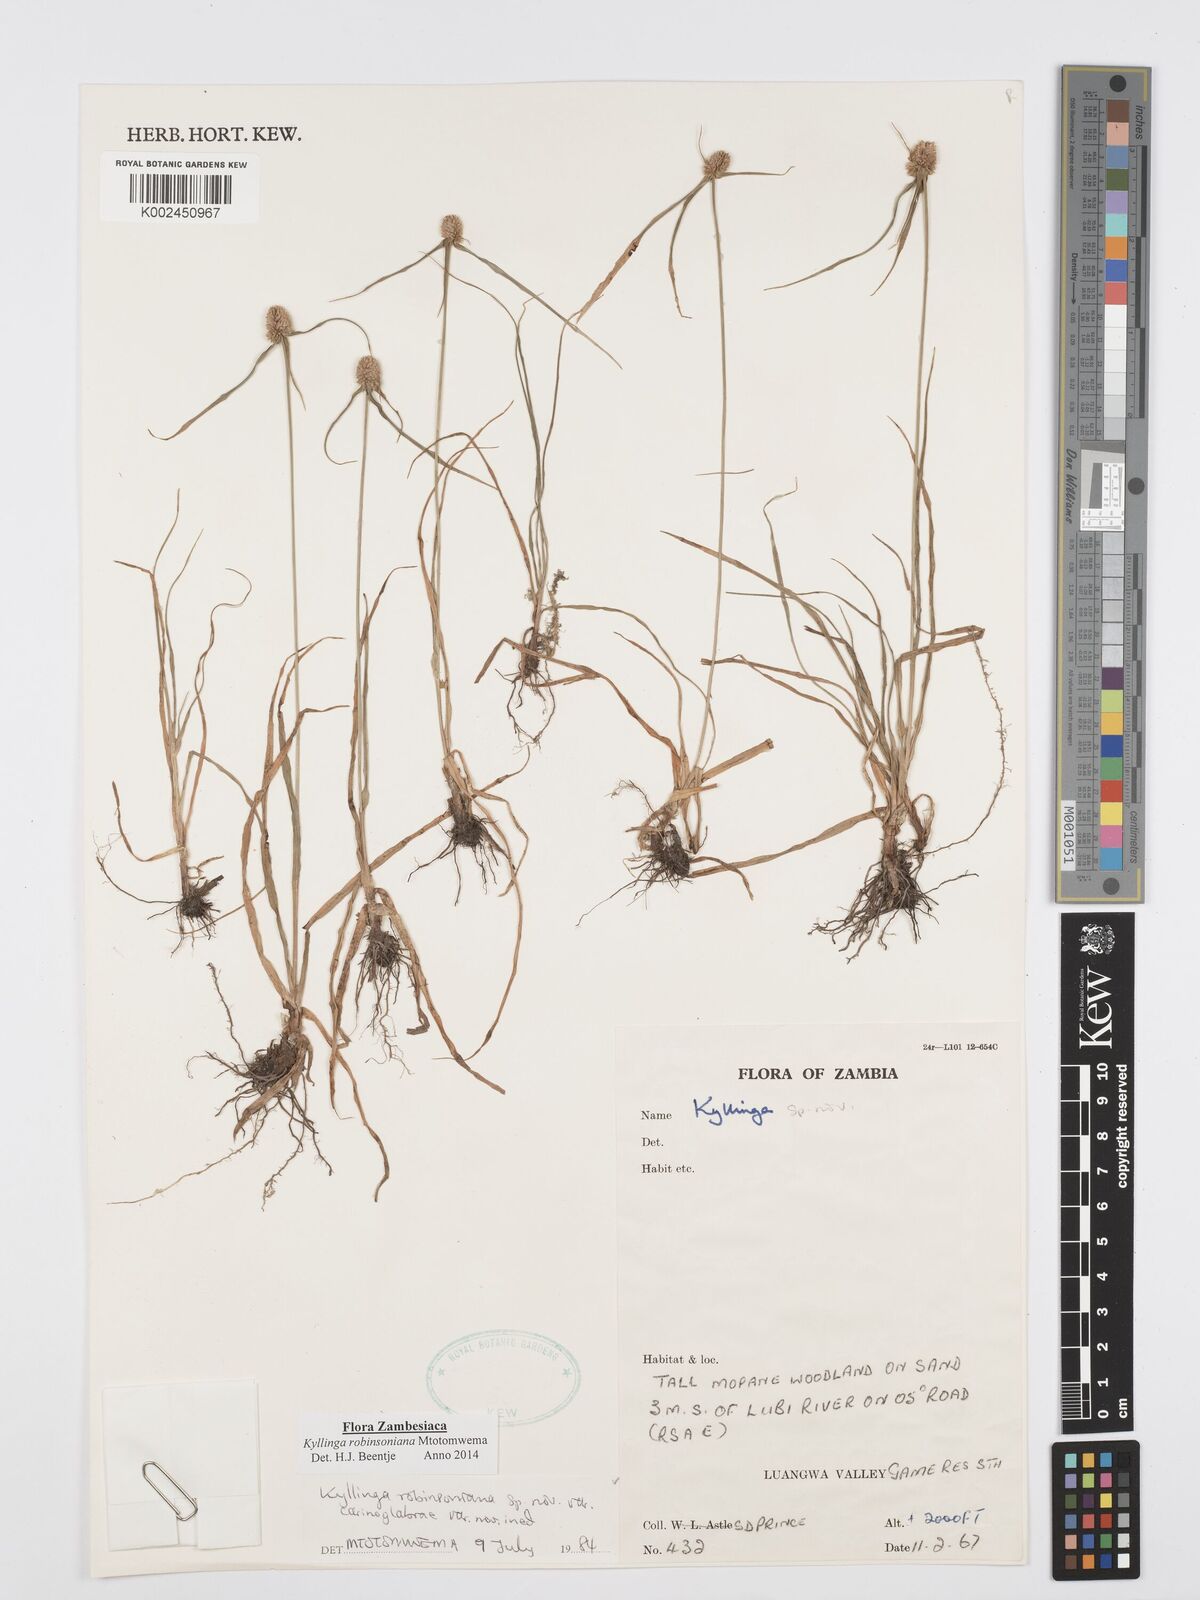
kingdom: Plantae
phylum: Tracheophyta
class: Liliopsida
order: Poales
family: Cyperaceae
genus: Cyperus
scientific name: Cyperus robinsonianus
